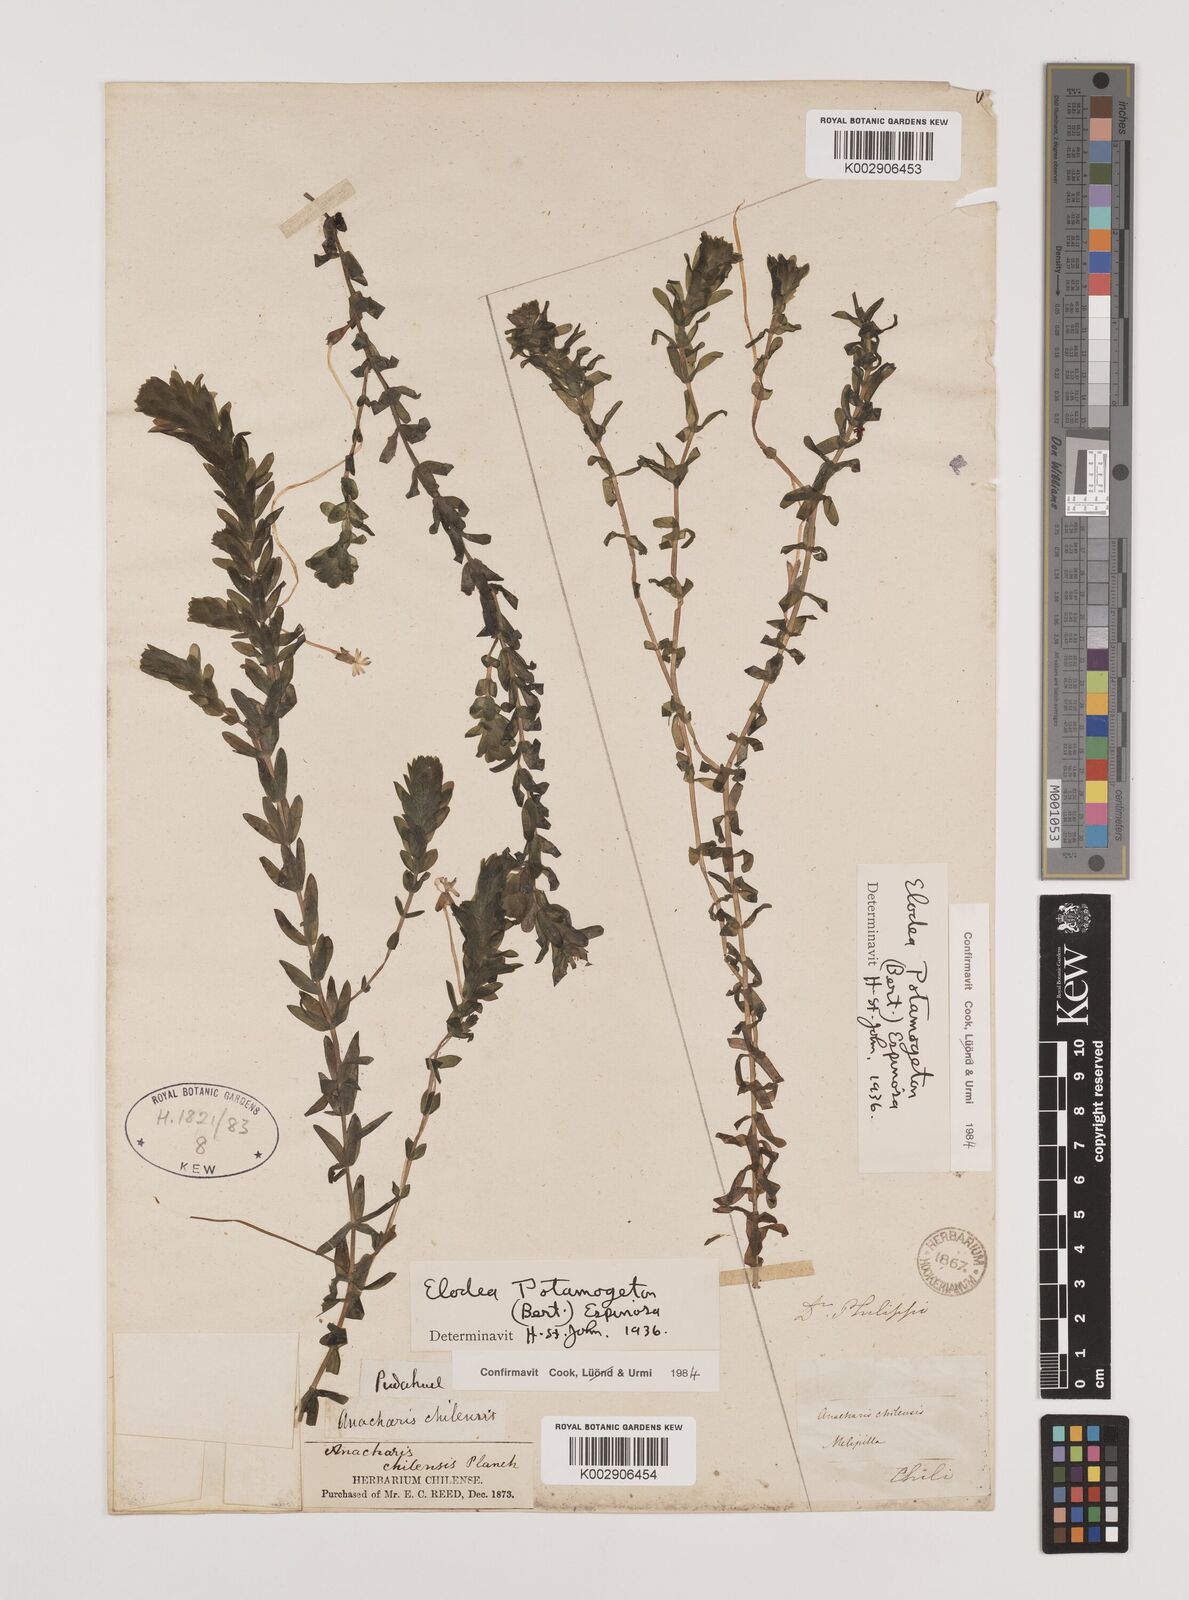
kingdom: Plantae
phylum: Tracheophyta
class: Liliopsida
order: Alismatales
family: Hydrocharitaceae
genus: Elodea
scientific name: Elodea potamogeton
